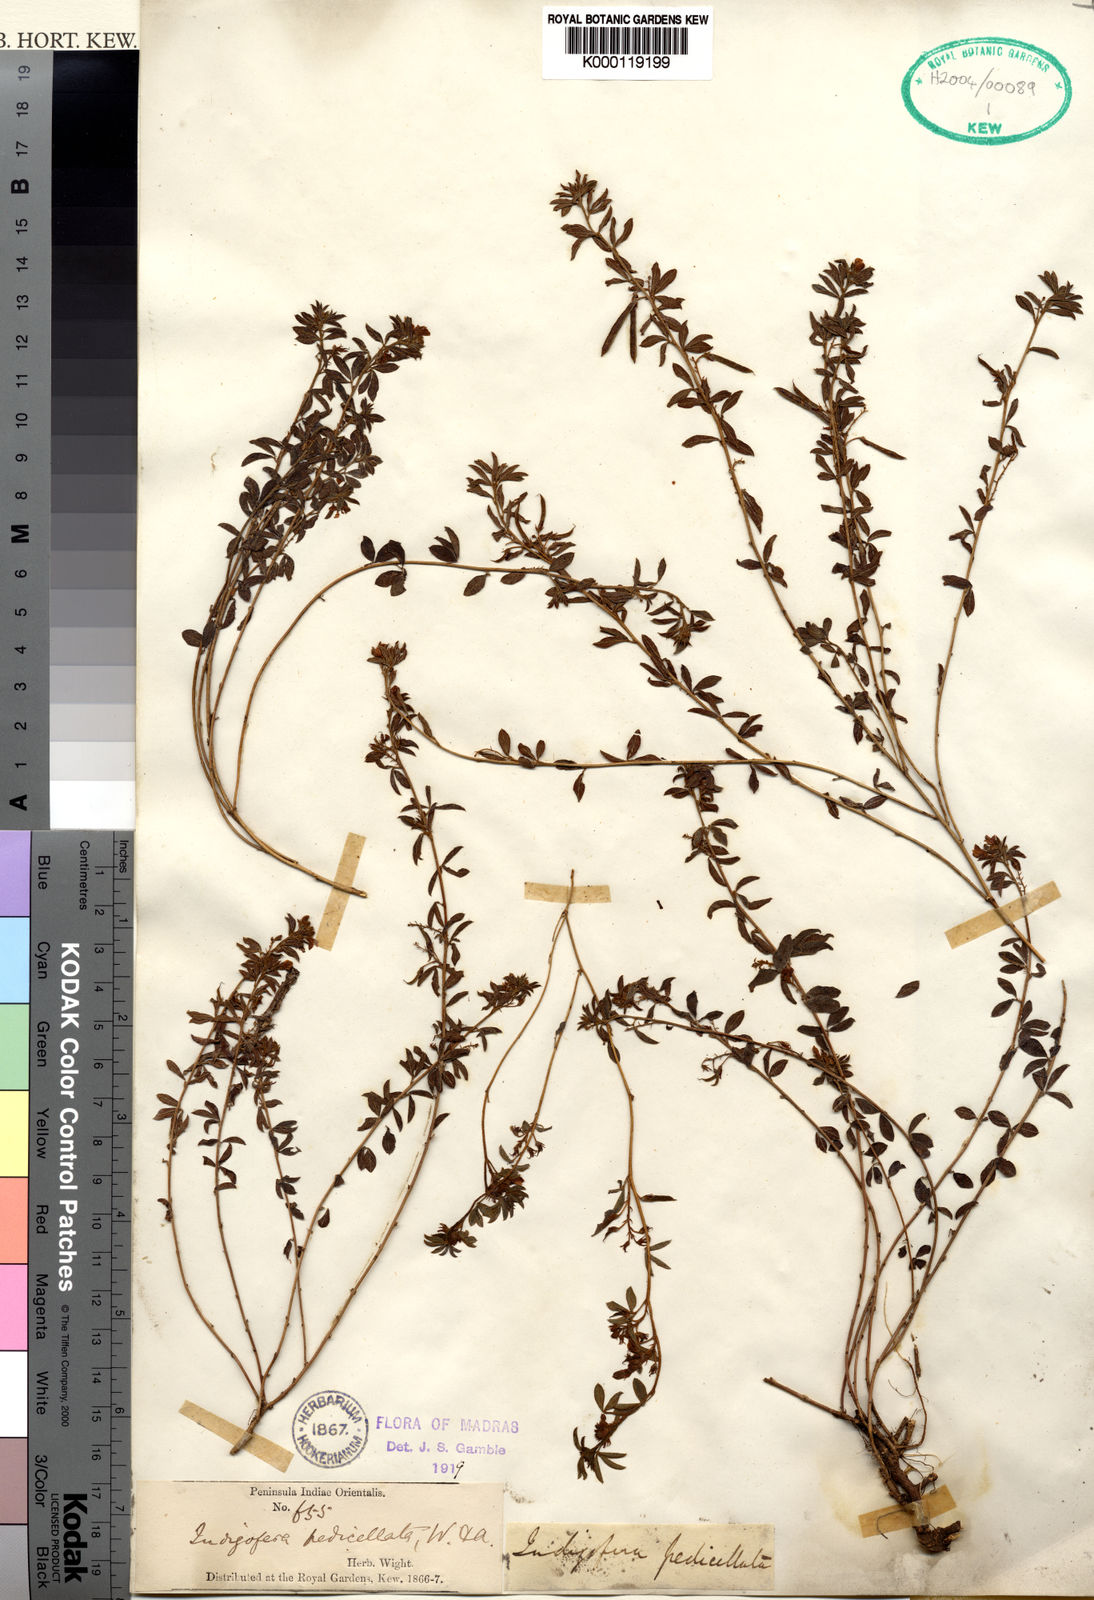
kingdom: Plantae
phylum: Tracheophyta
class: Magnoliopsida
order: Fabales
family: Fabaceae
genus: Indigofera
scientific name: Indigofera pedicellata
